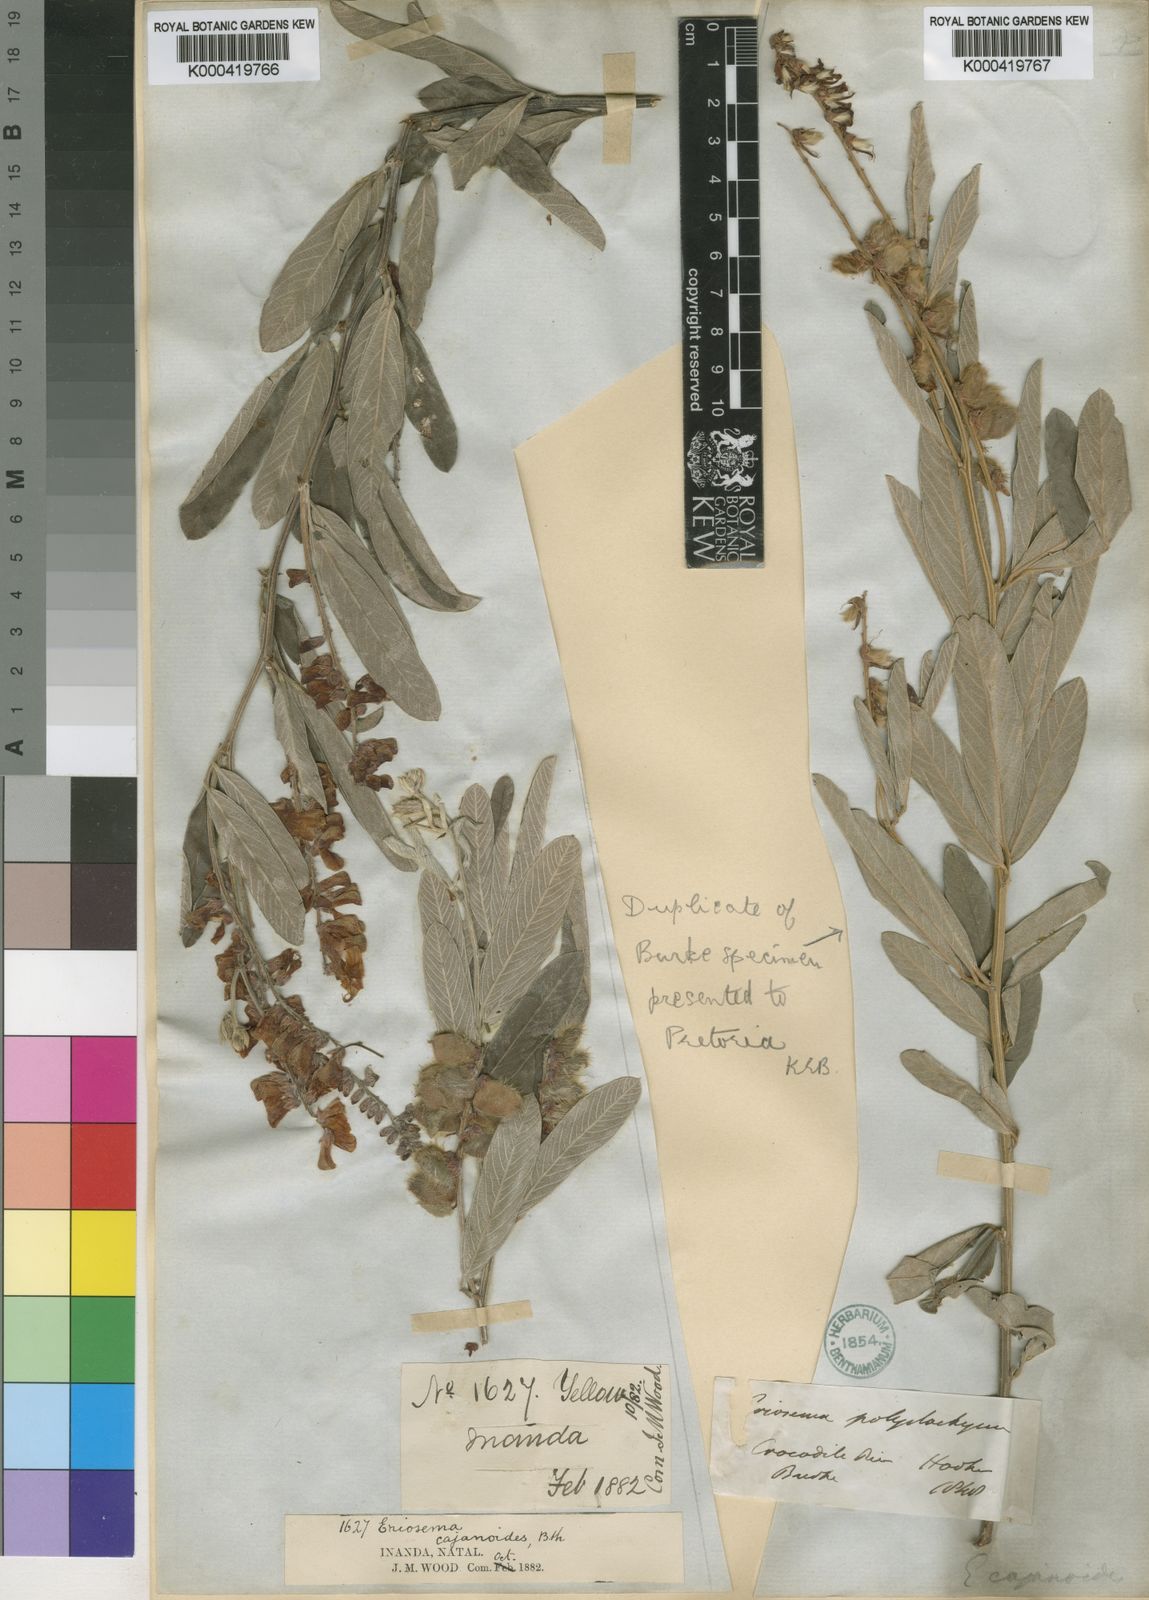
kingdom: Plantae
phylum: Tracheophyta
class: Magnoliopsida
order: Fabales
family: Fabaceae
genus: Eriosema
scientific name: Eriosema psoraleoides
